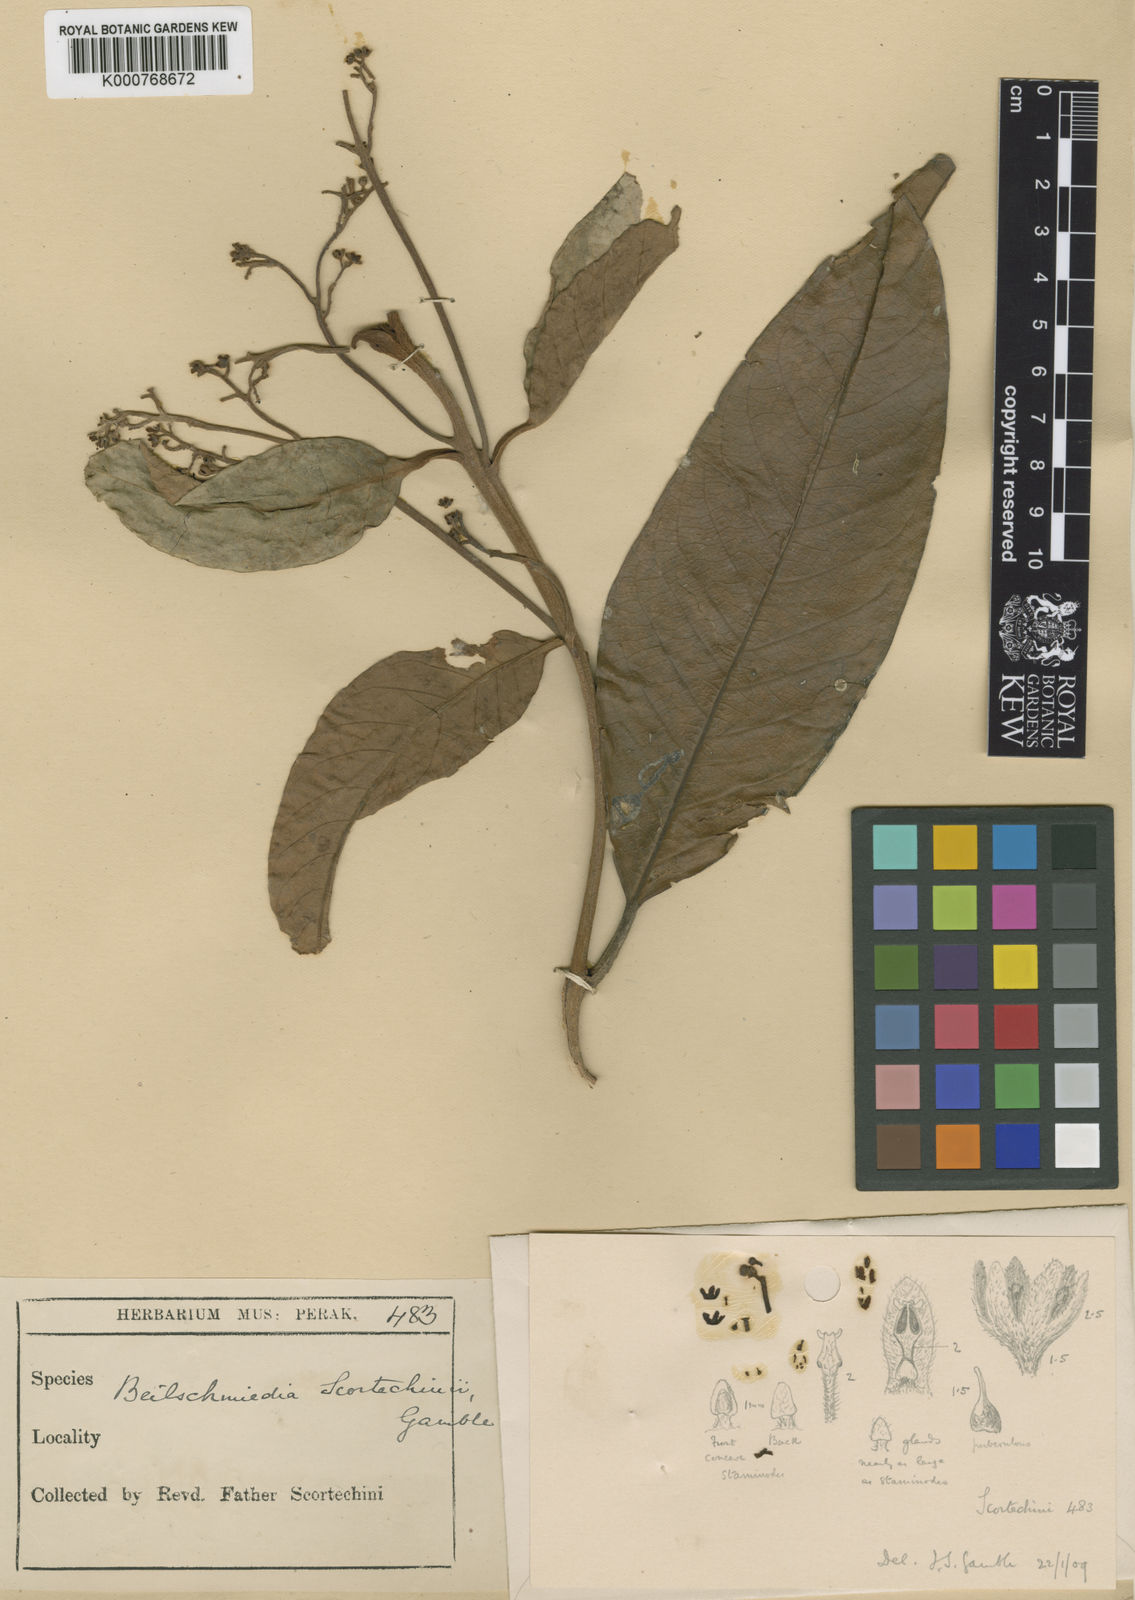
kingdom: Plantae
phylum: Tracheophyta
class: Magnoliopsida
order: Laurales
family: Lauraceae
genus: Beilschmiedia
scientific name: Beilschmiedia scortechinii
